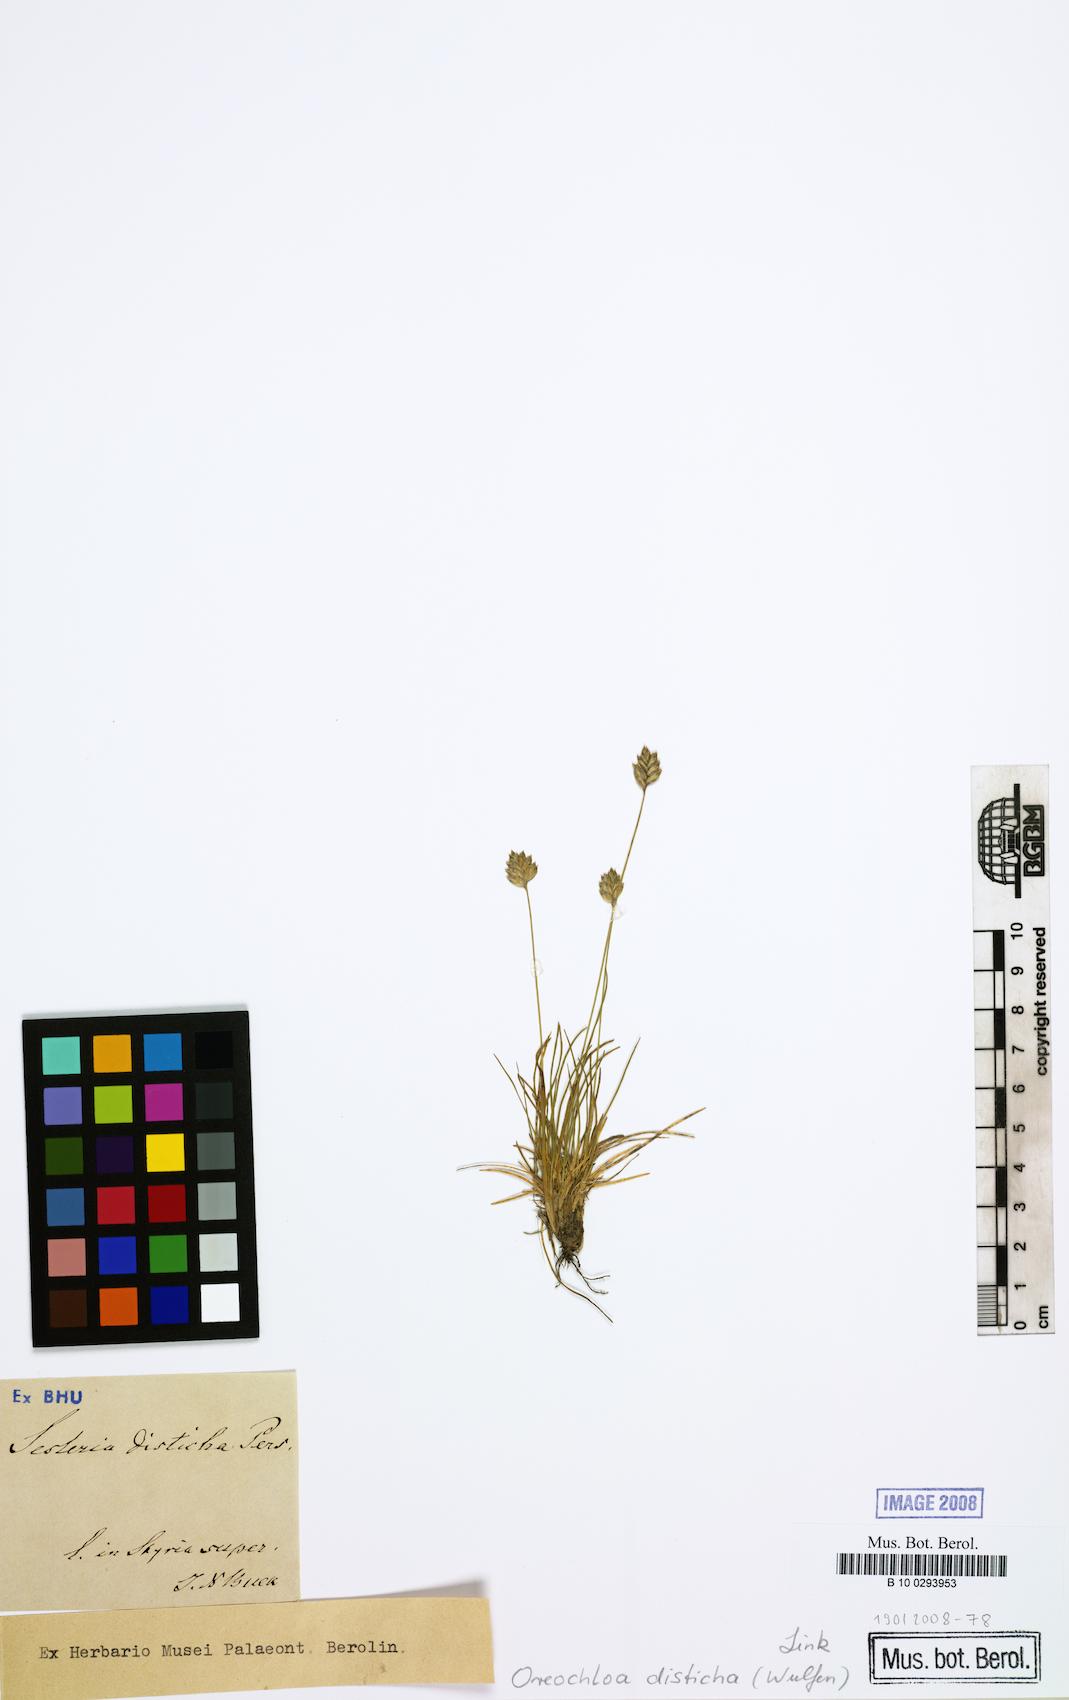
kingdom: Plantae
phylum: Tracheophyta
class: Liliopsida
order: Poales
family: Poaceae
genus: Oreochloa
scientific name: Oreochloa disticha
